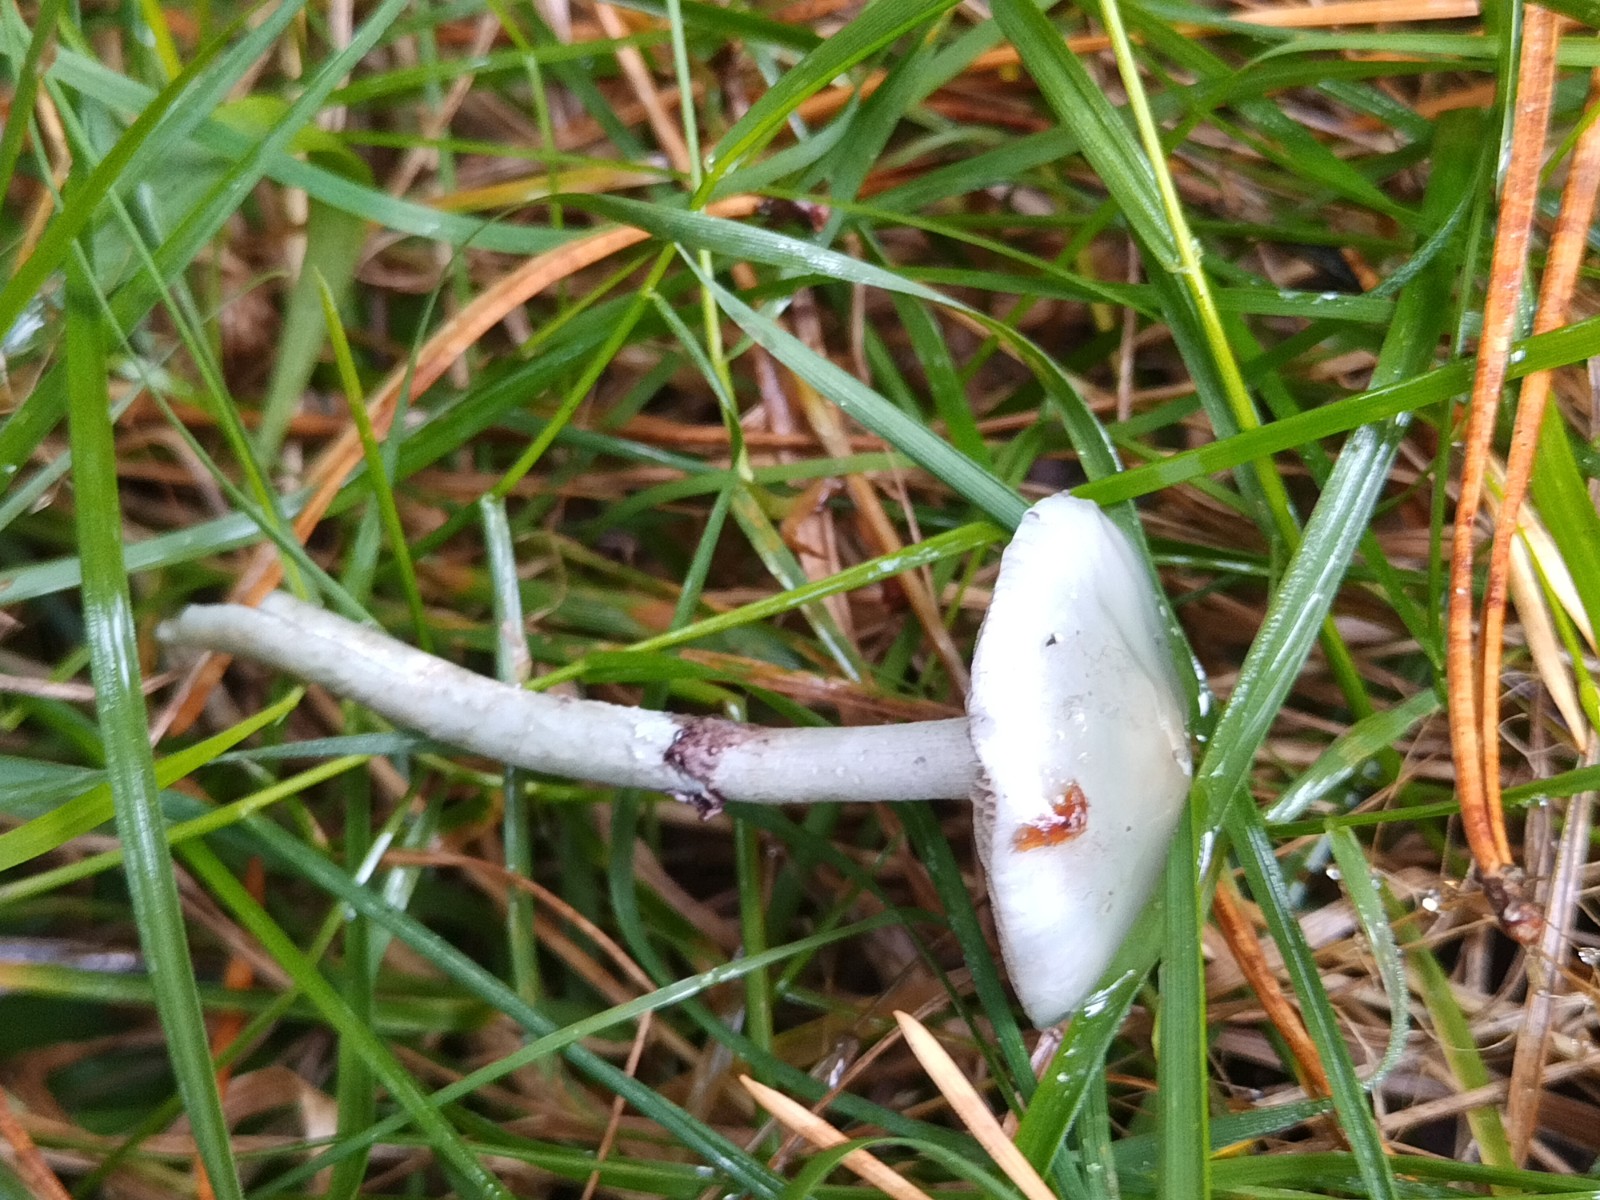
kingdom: Fungi
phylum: Basidiomycota
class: Agaricomycetes
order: Agaricales
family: Strophariaceae
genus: Stropharia
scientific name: Stropharia cyanea
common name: blågrøn bredblad
